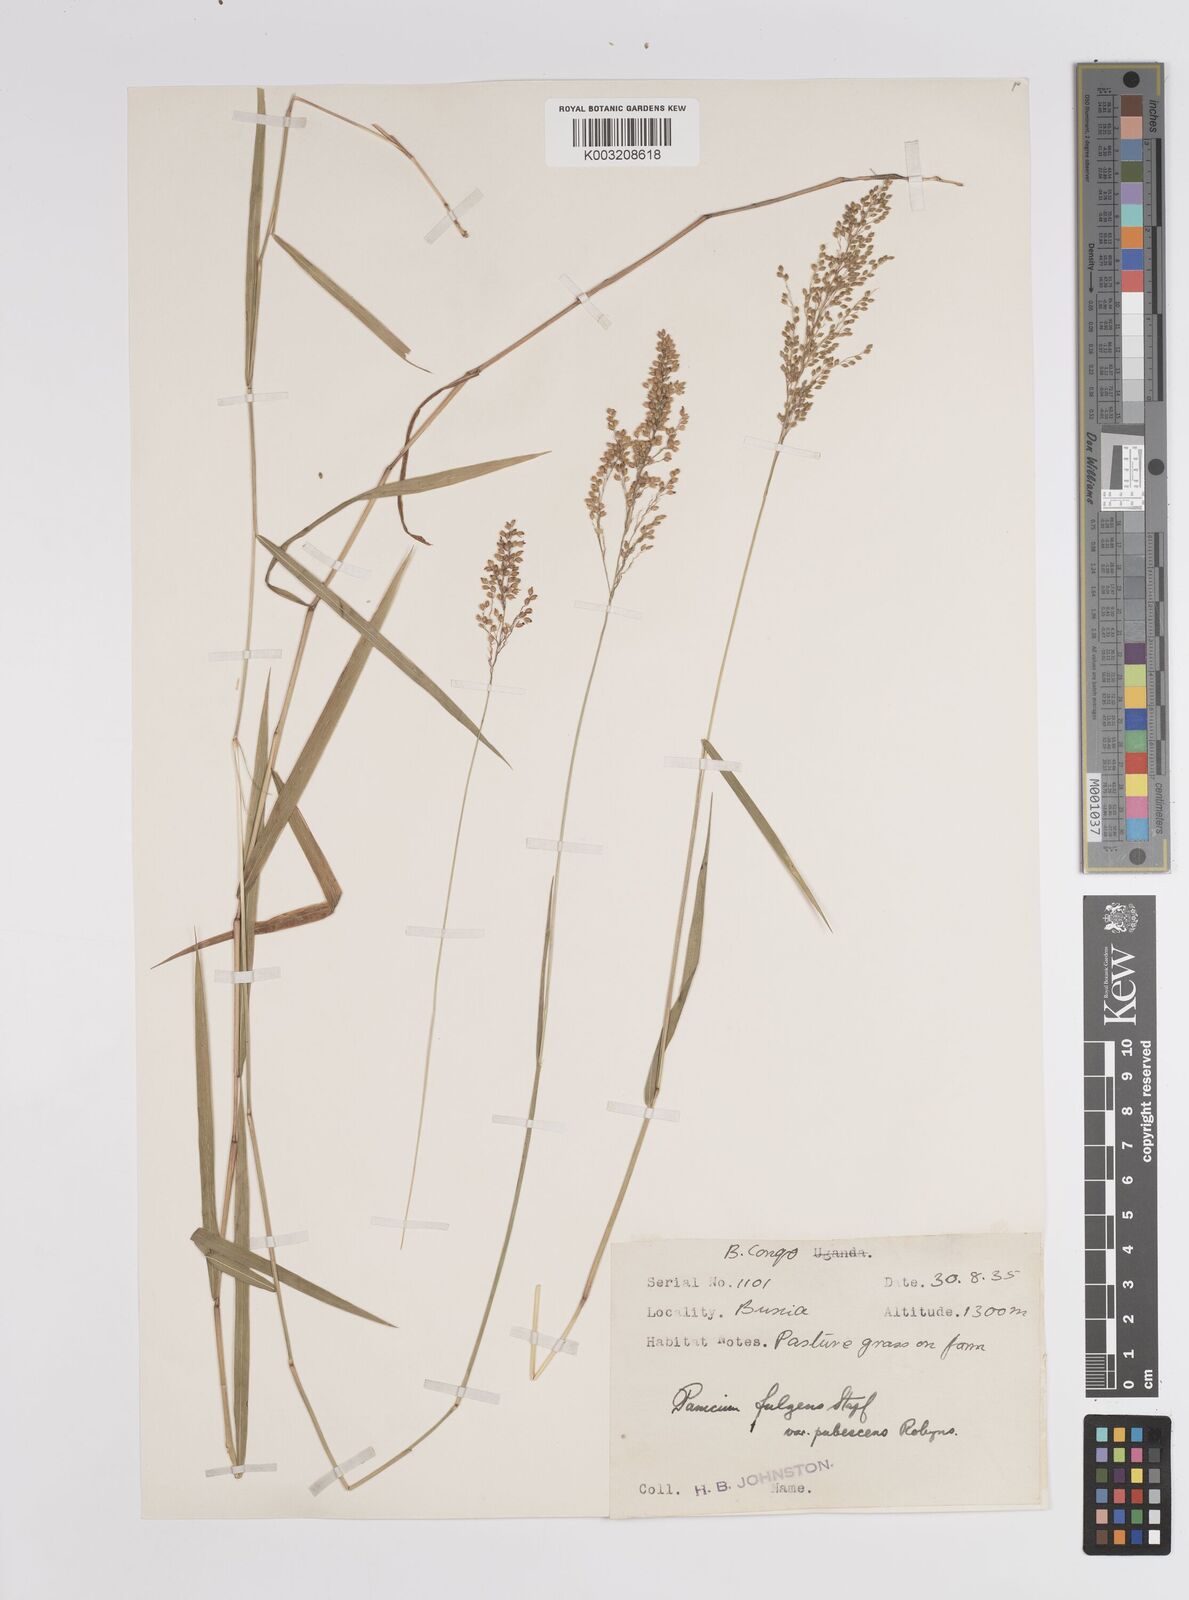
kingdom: Plantae
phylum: Tracheophyta
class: Liliopsida
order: Poales
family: Poaceae
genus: Trichanthecium
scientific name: Trichanthecium nervatum
